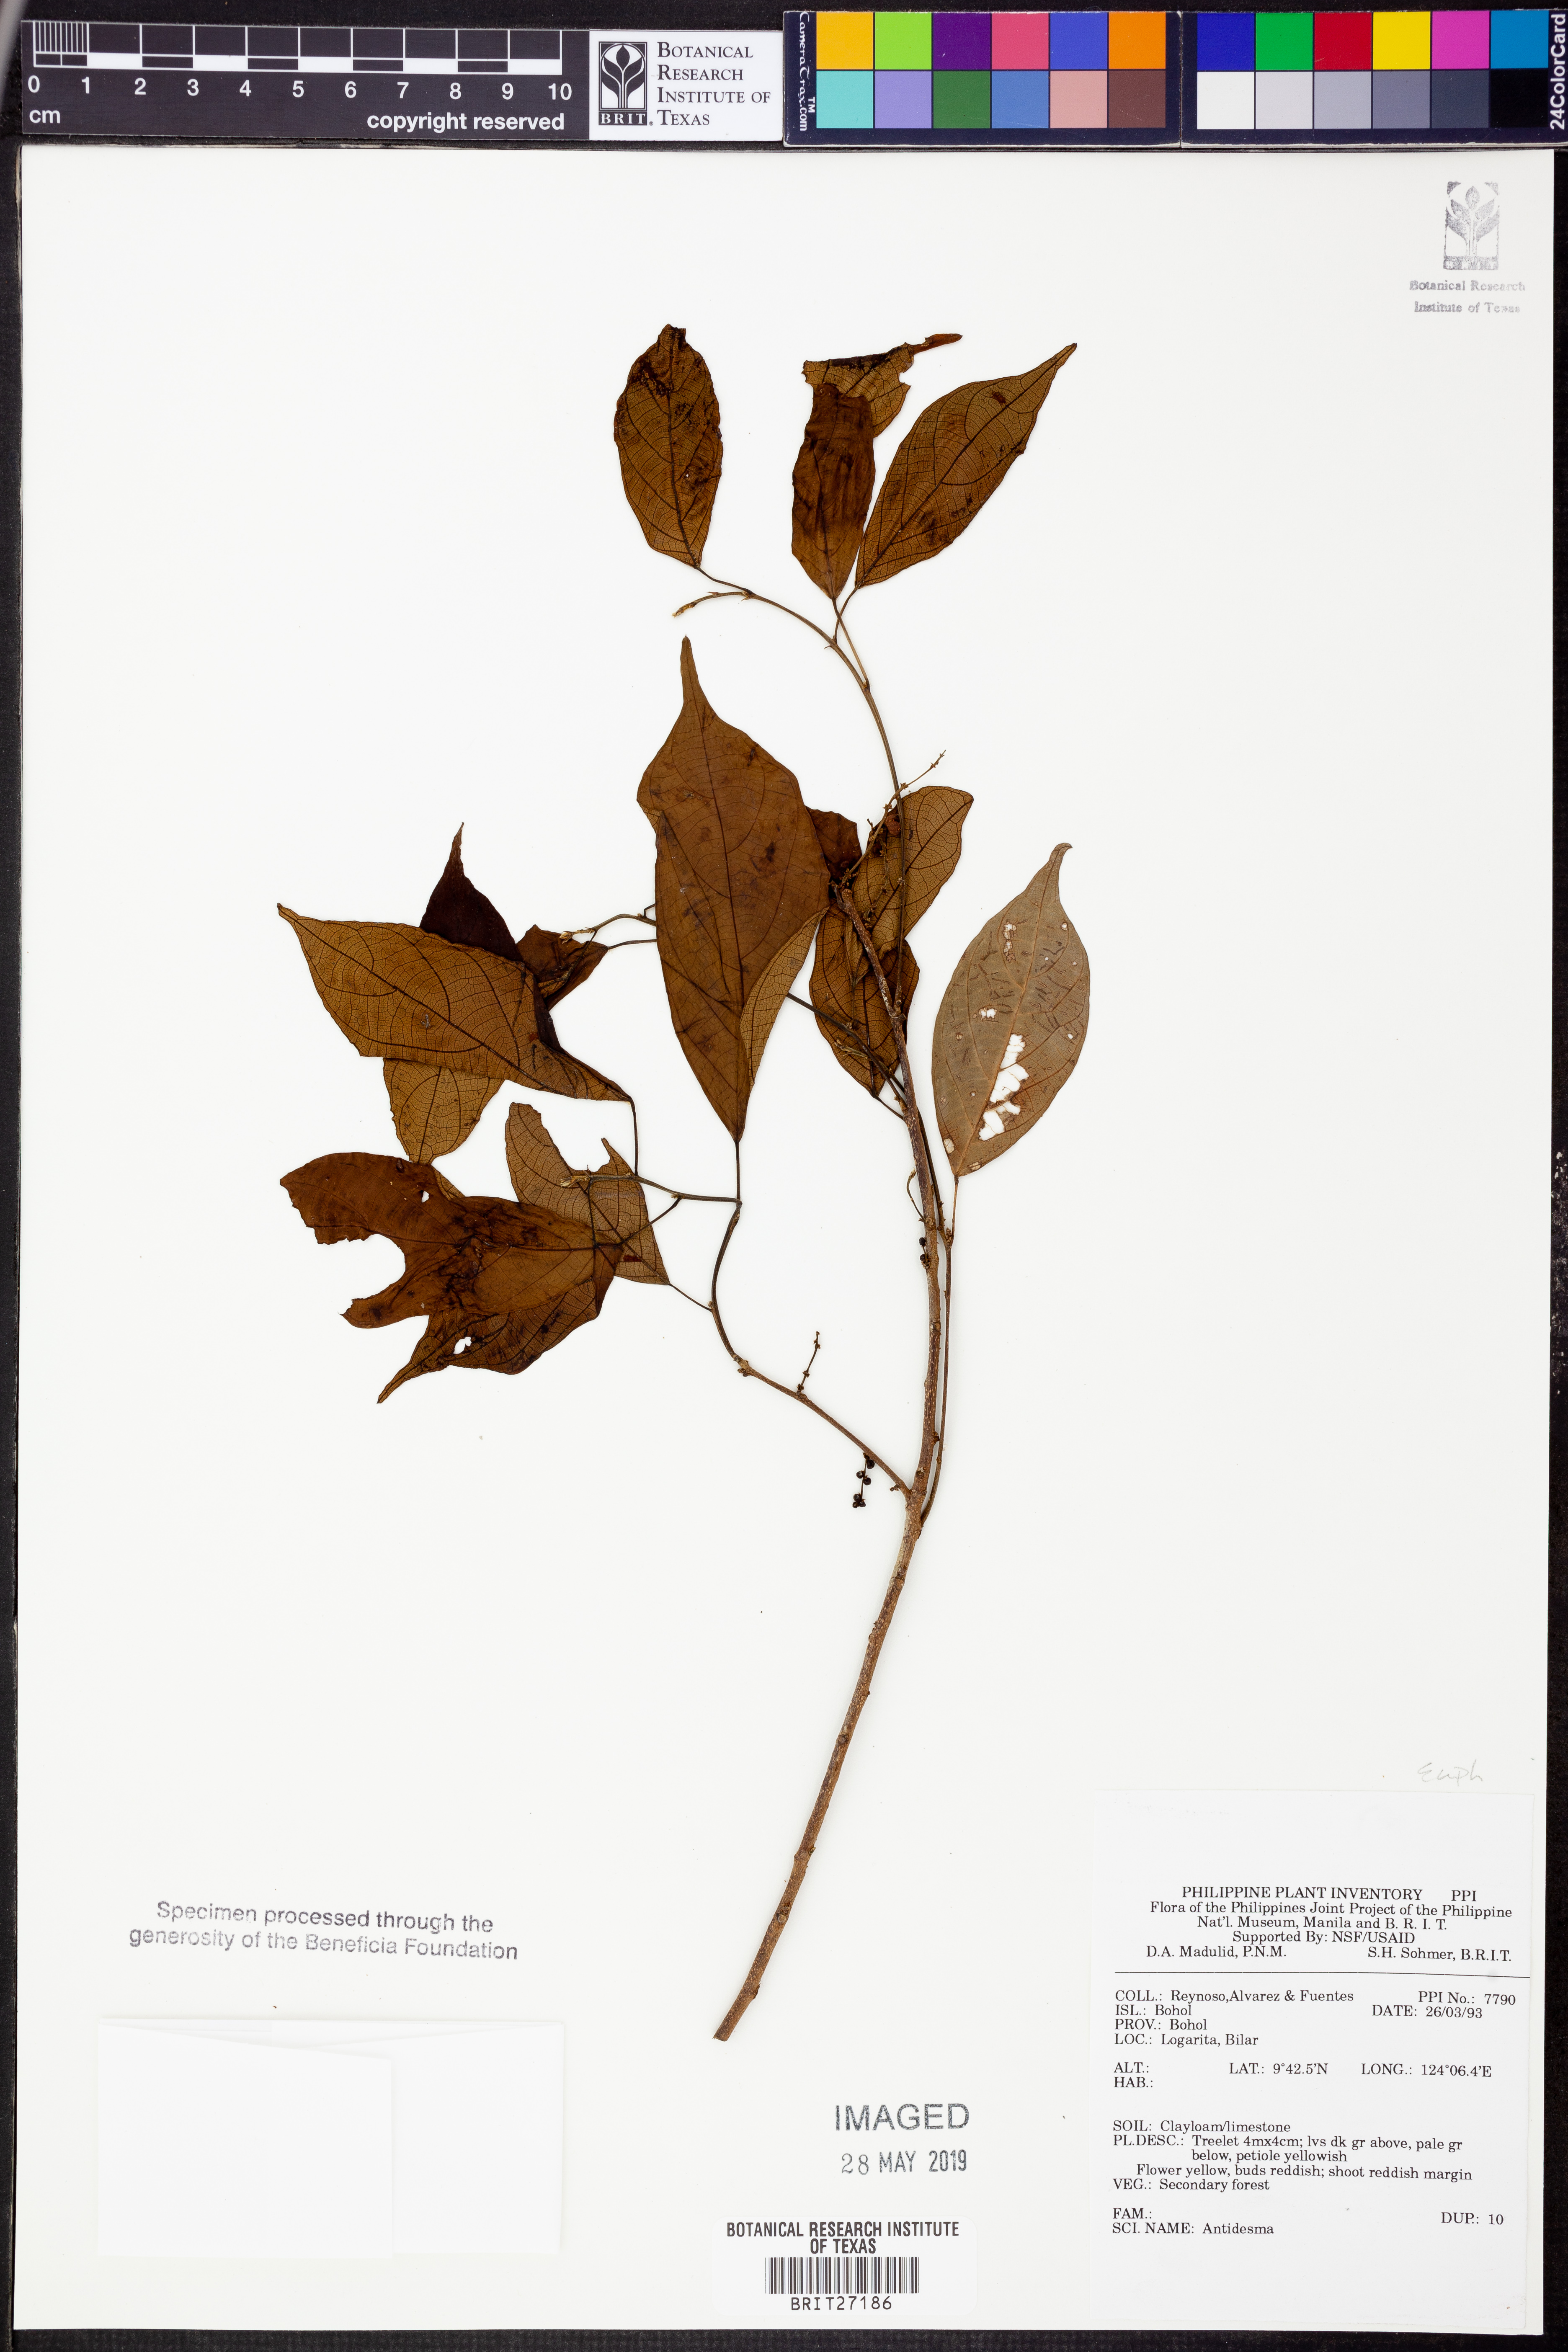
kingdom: Plantae
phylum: Tracheophyta
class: Magnoliopsida
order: Malpighiales
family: Phyllanthaceae
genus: Antidesma
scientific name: Antidesma
